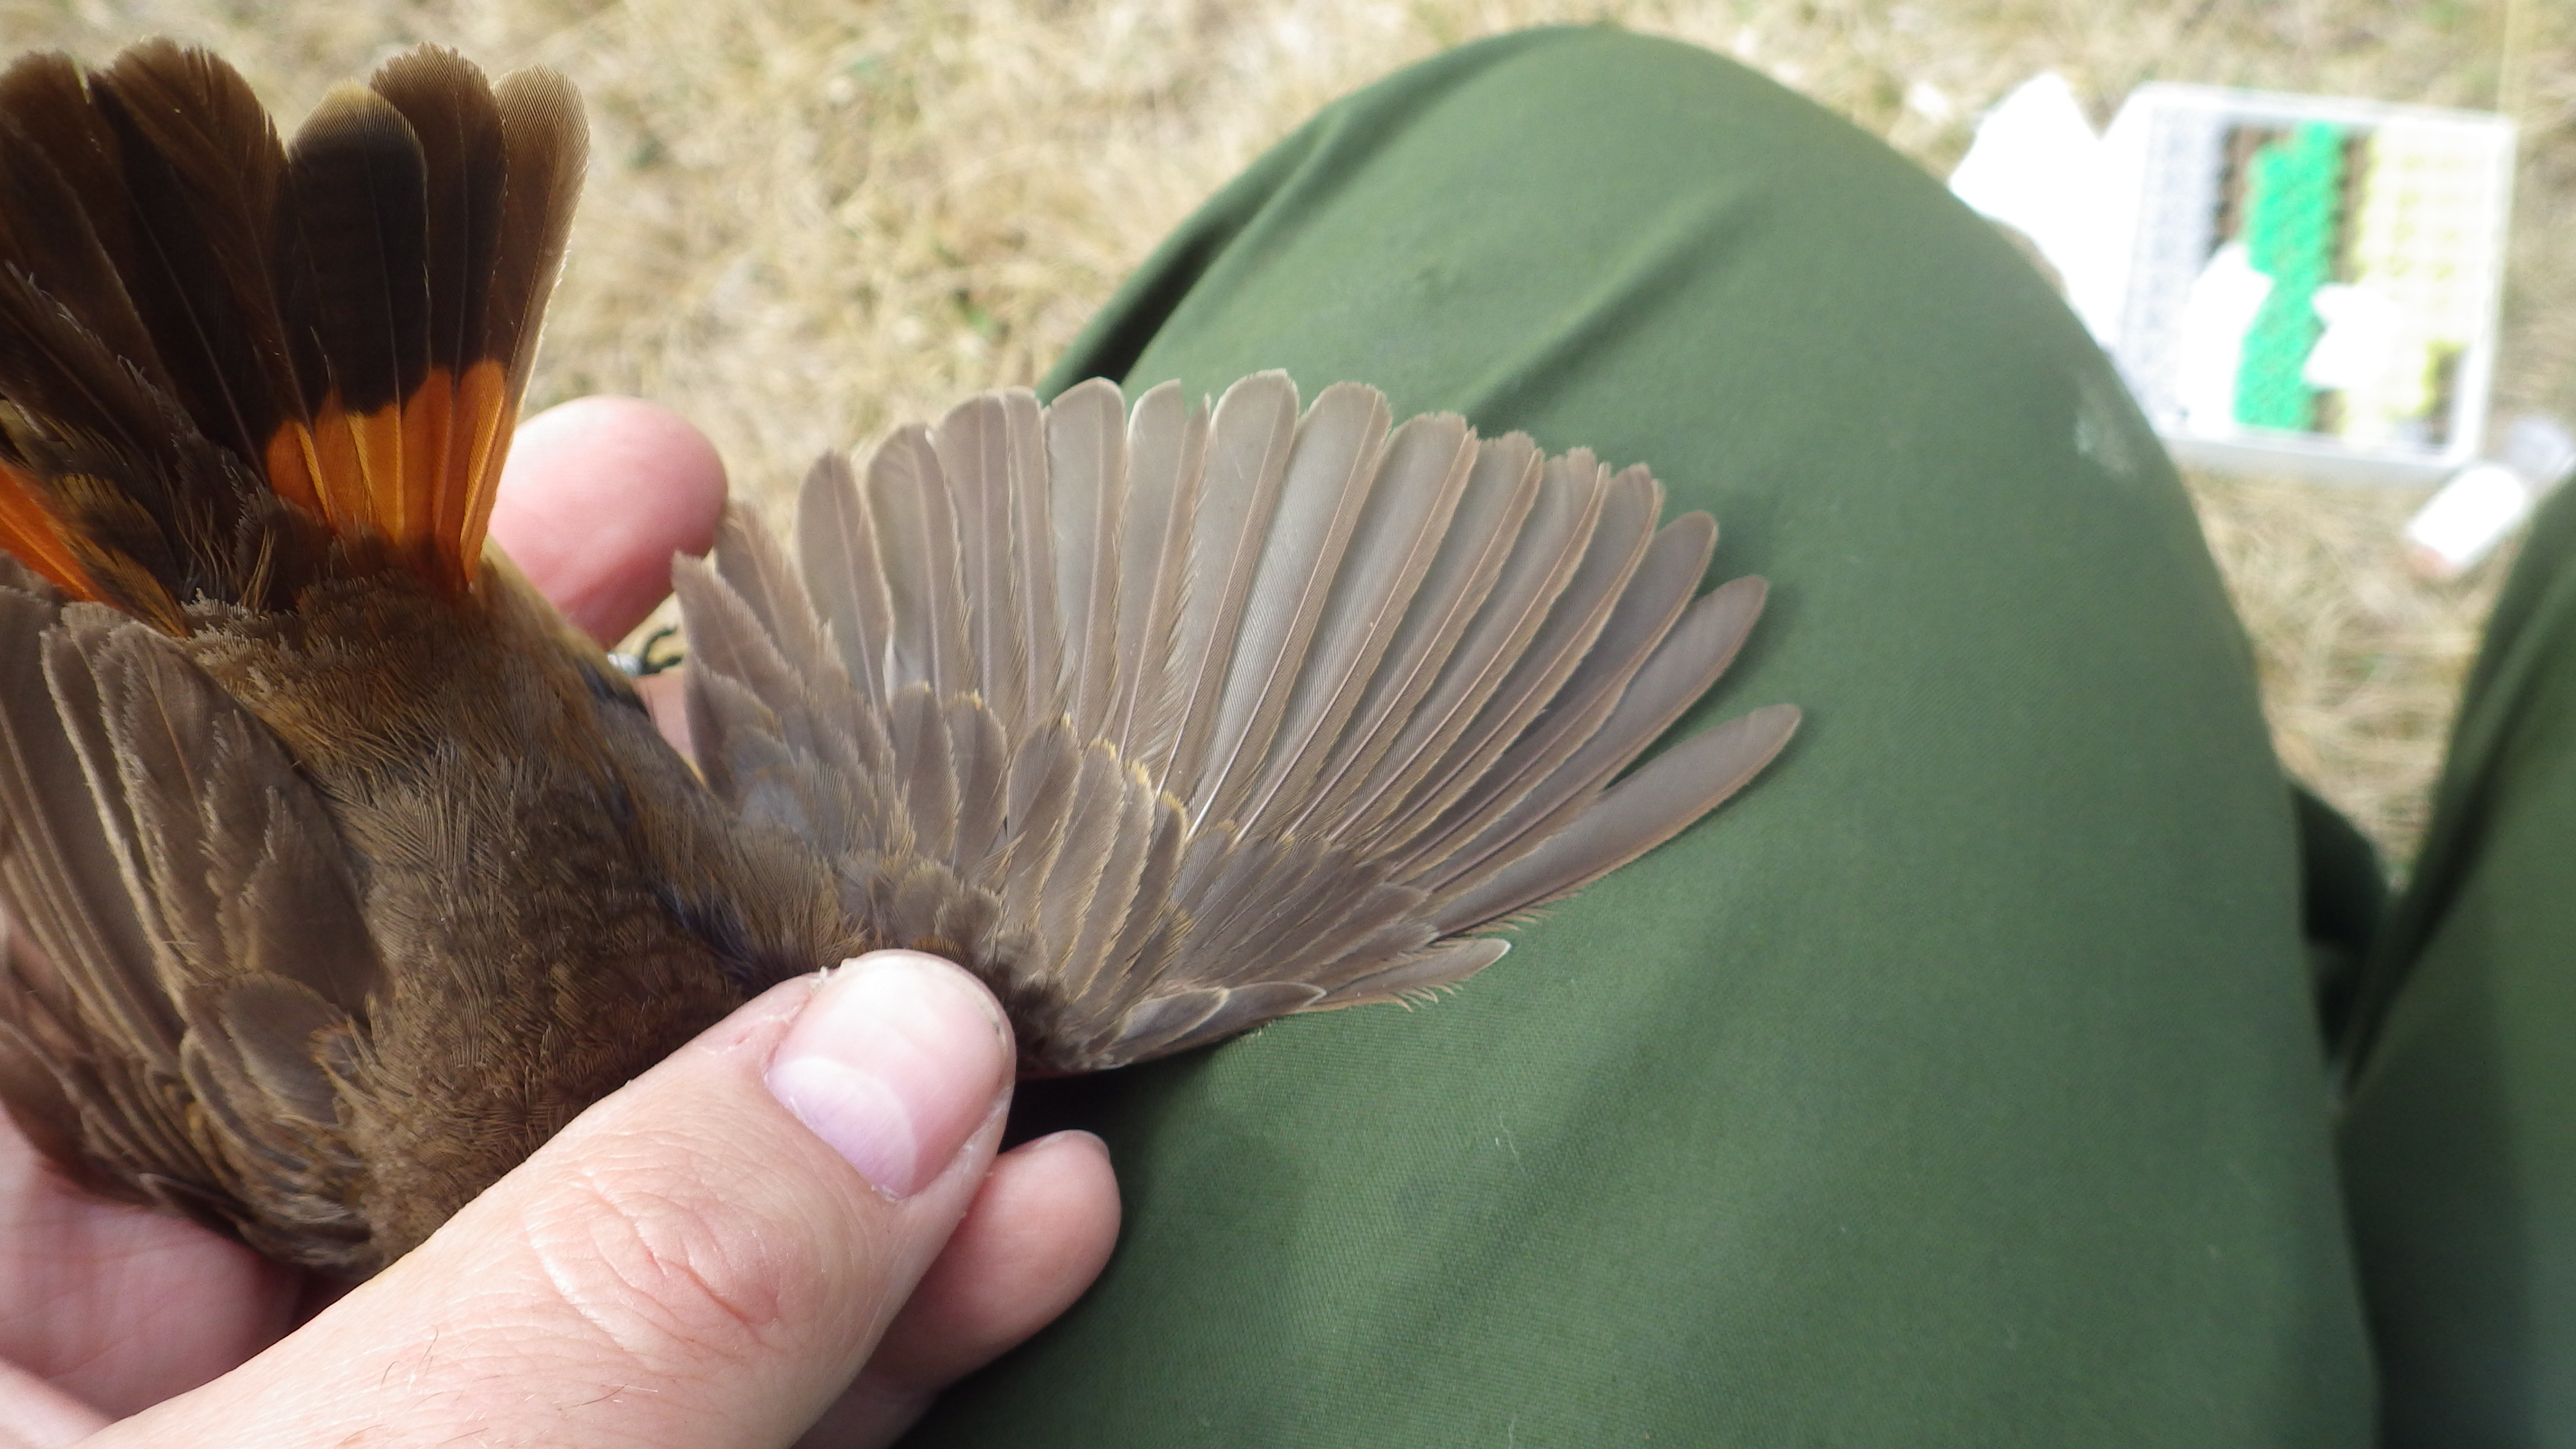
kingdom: Animalia
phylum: Chordata
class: Aves
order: Passeriformes
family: Muscicapidae
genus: Luscinia
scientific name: Luscinia svecica
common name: Bluethroat
